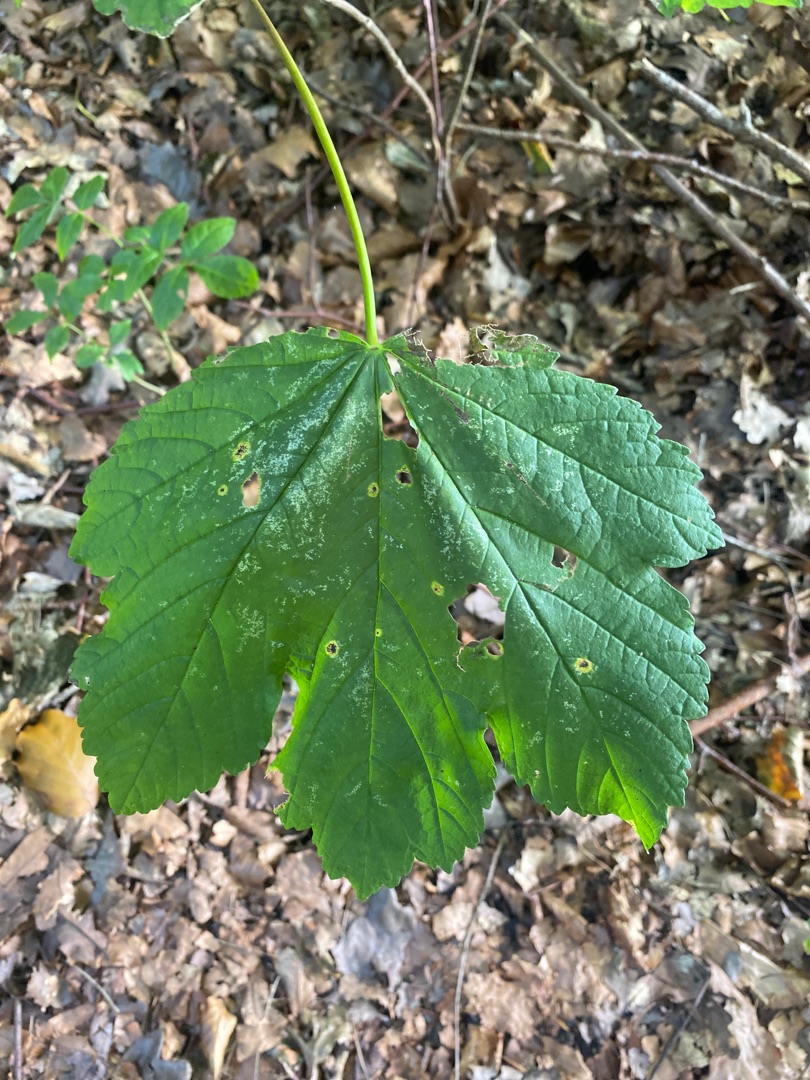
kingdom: Plantae
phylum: Tracheophyta
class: Magnoliopsida
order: Sapindales
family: Sapindaceae
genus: Acer
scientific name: Acer pseudoplatanus
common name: Ahorn
